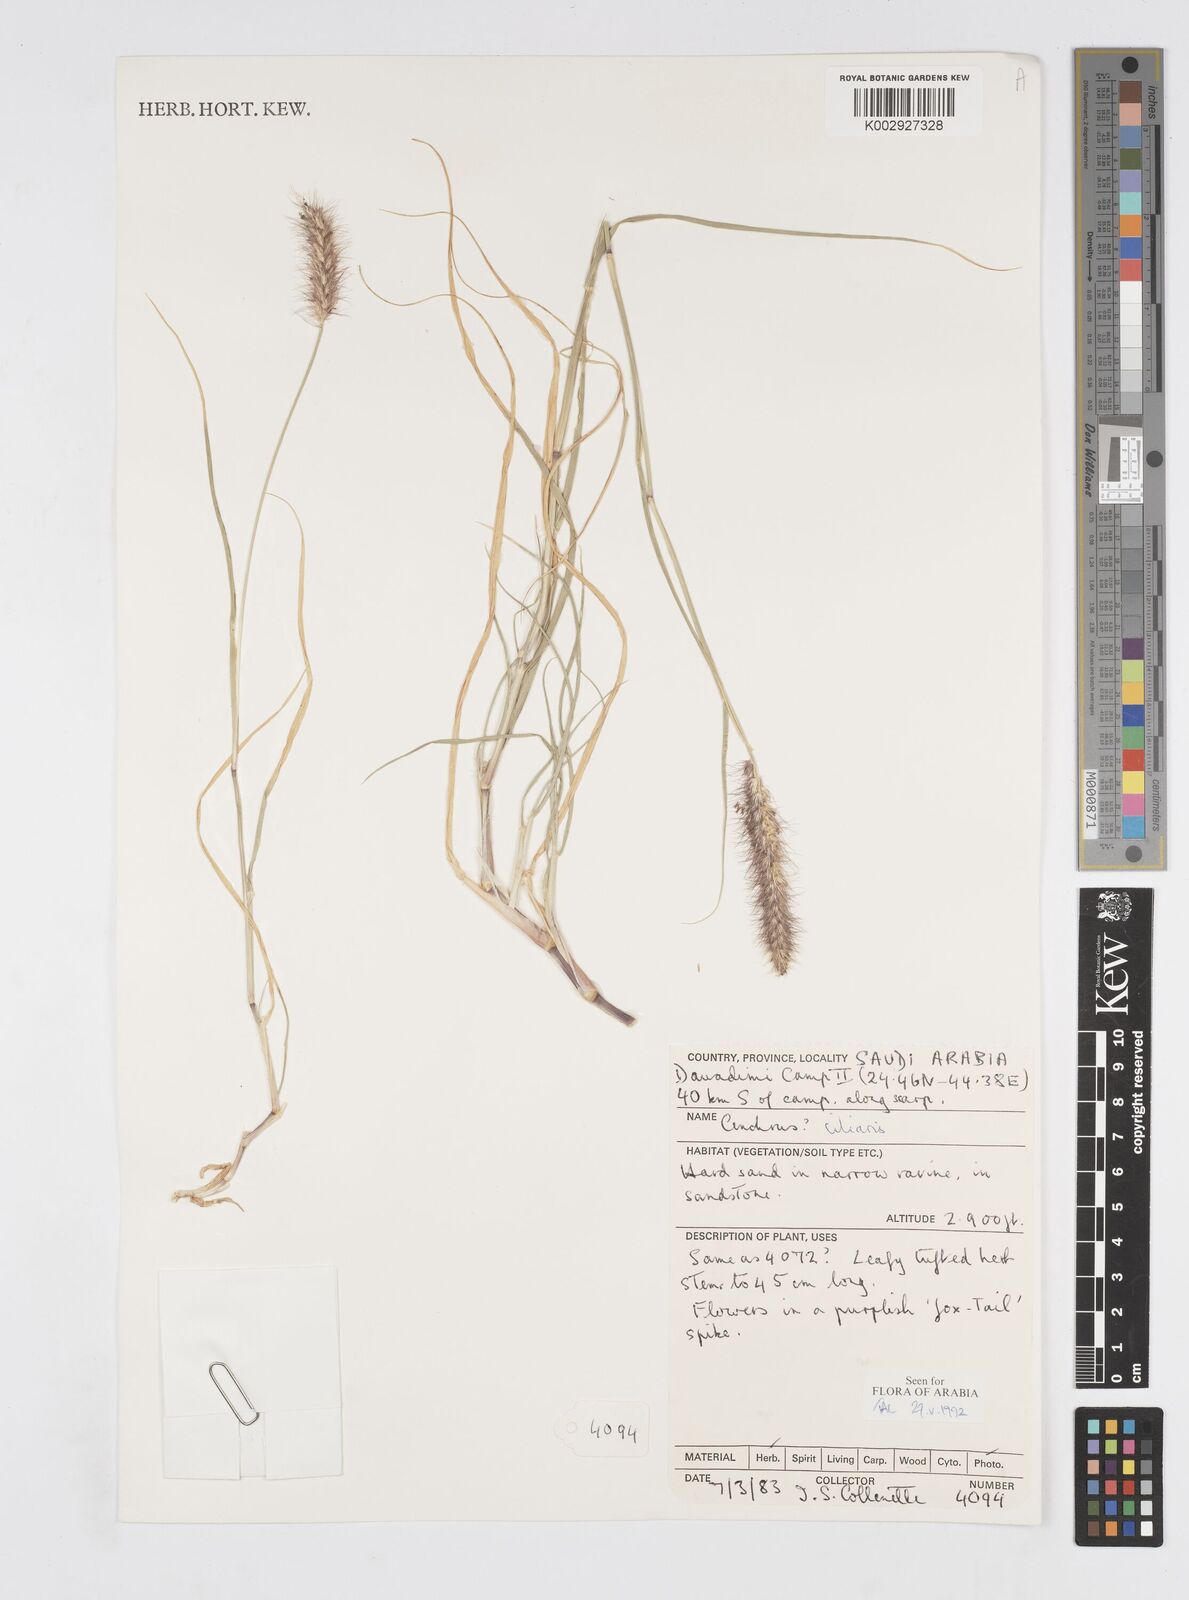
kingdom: Plantae
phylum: Tracheophyta
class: Liliopsida
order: Poales
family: Poaceae
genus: Cenchrus
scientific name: Cenchrus ciliaris
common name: Buffelgrass
